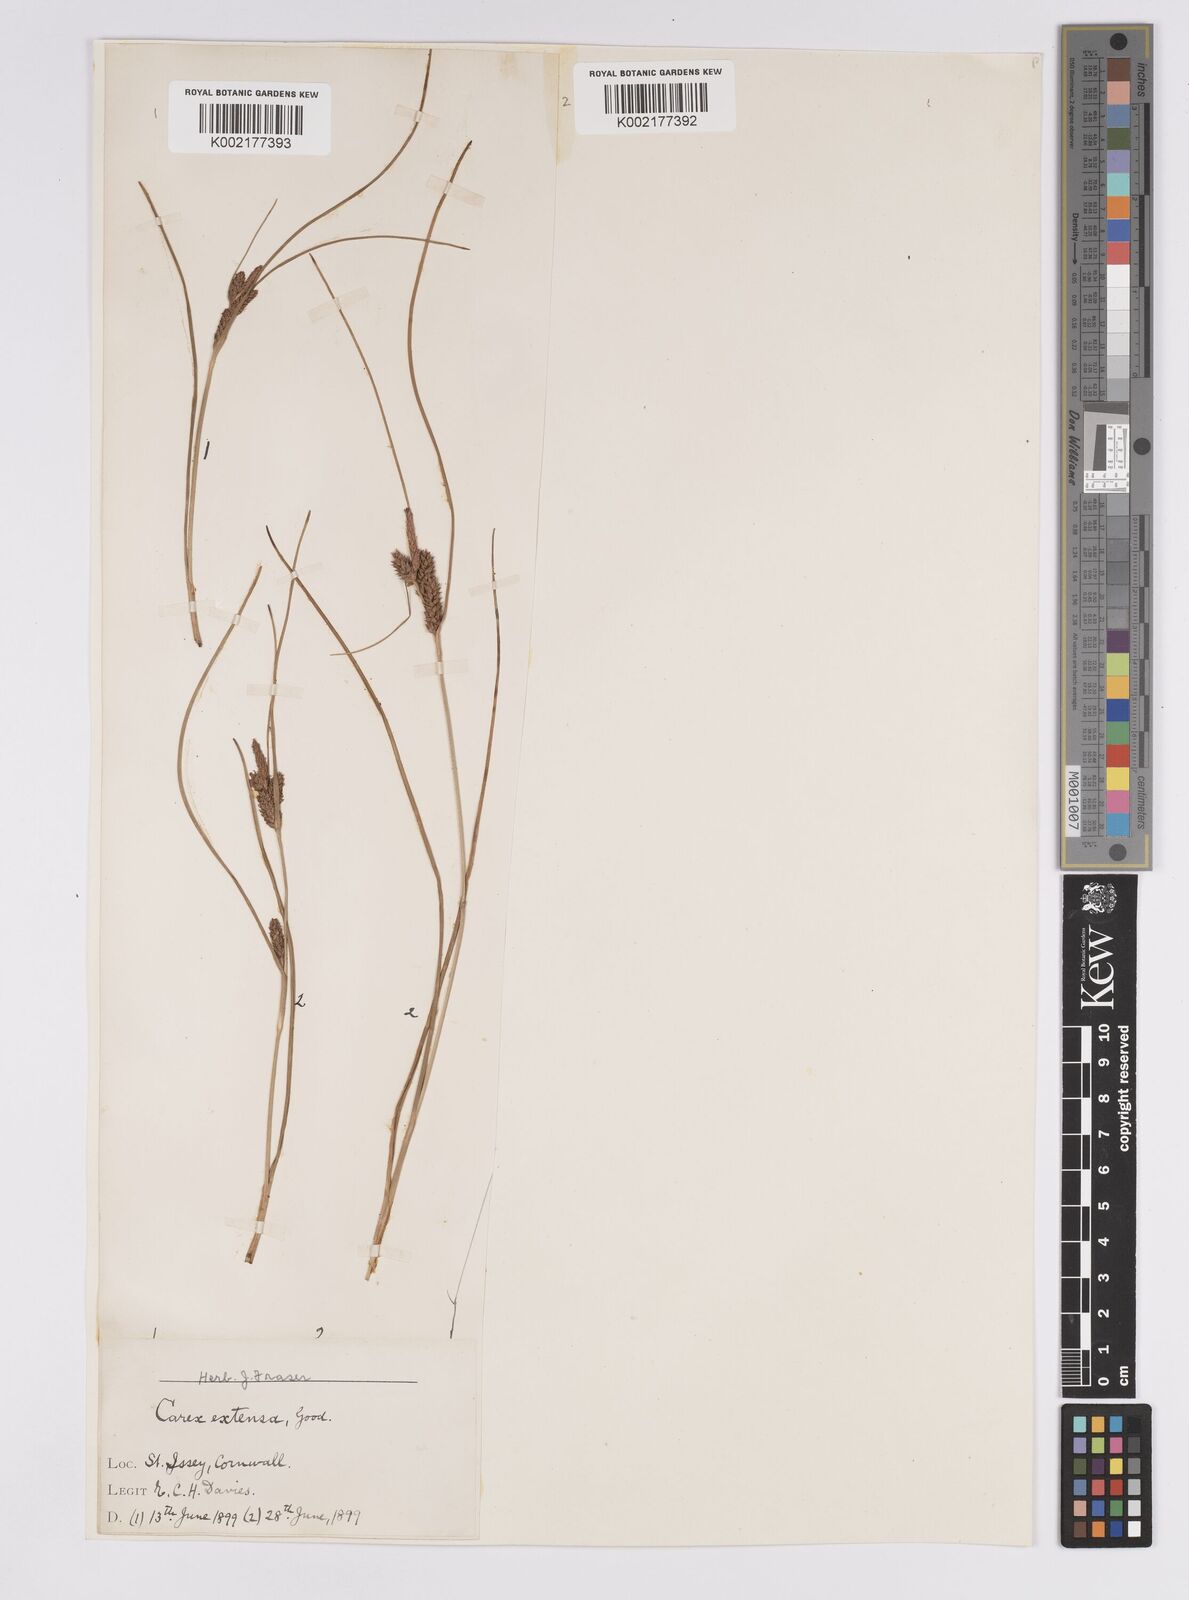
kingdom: Plantae
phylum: Tracheophyta
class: Liliopsida
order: Poales
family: Cyperaceae
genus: Carex
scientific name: Carex extensa
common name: Long-bracted sedge
